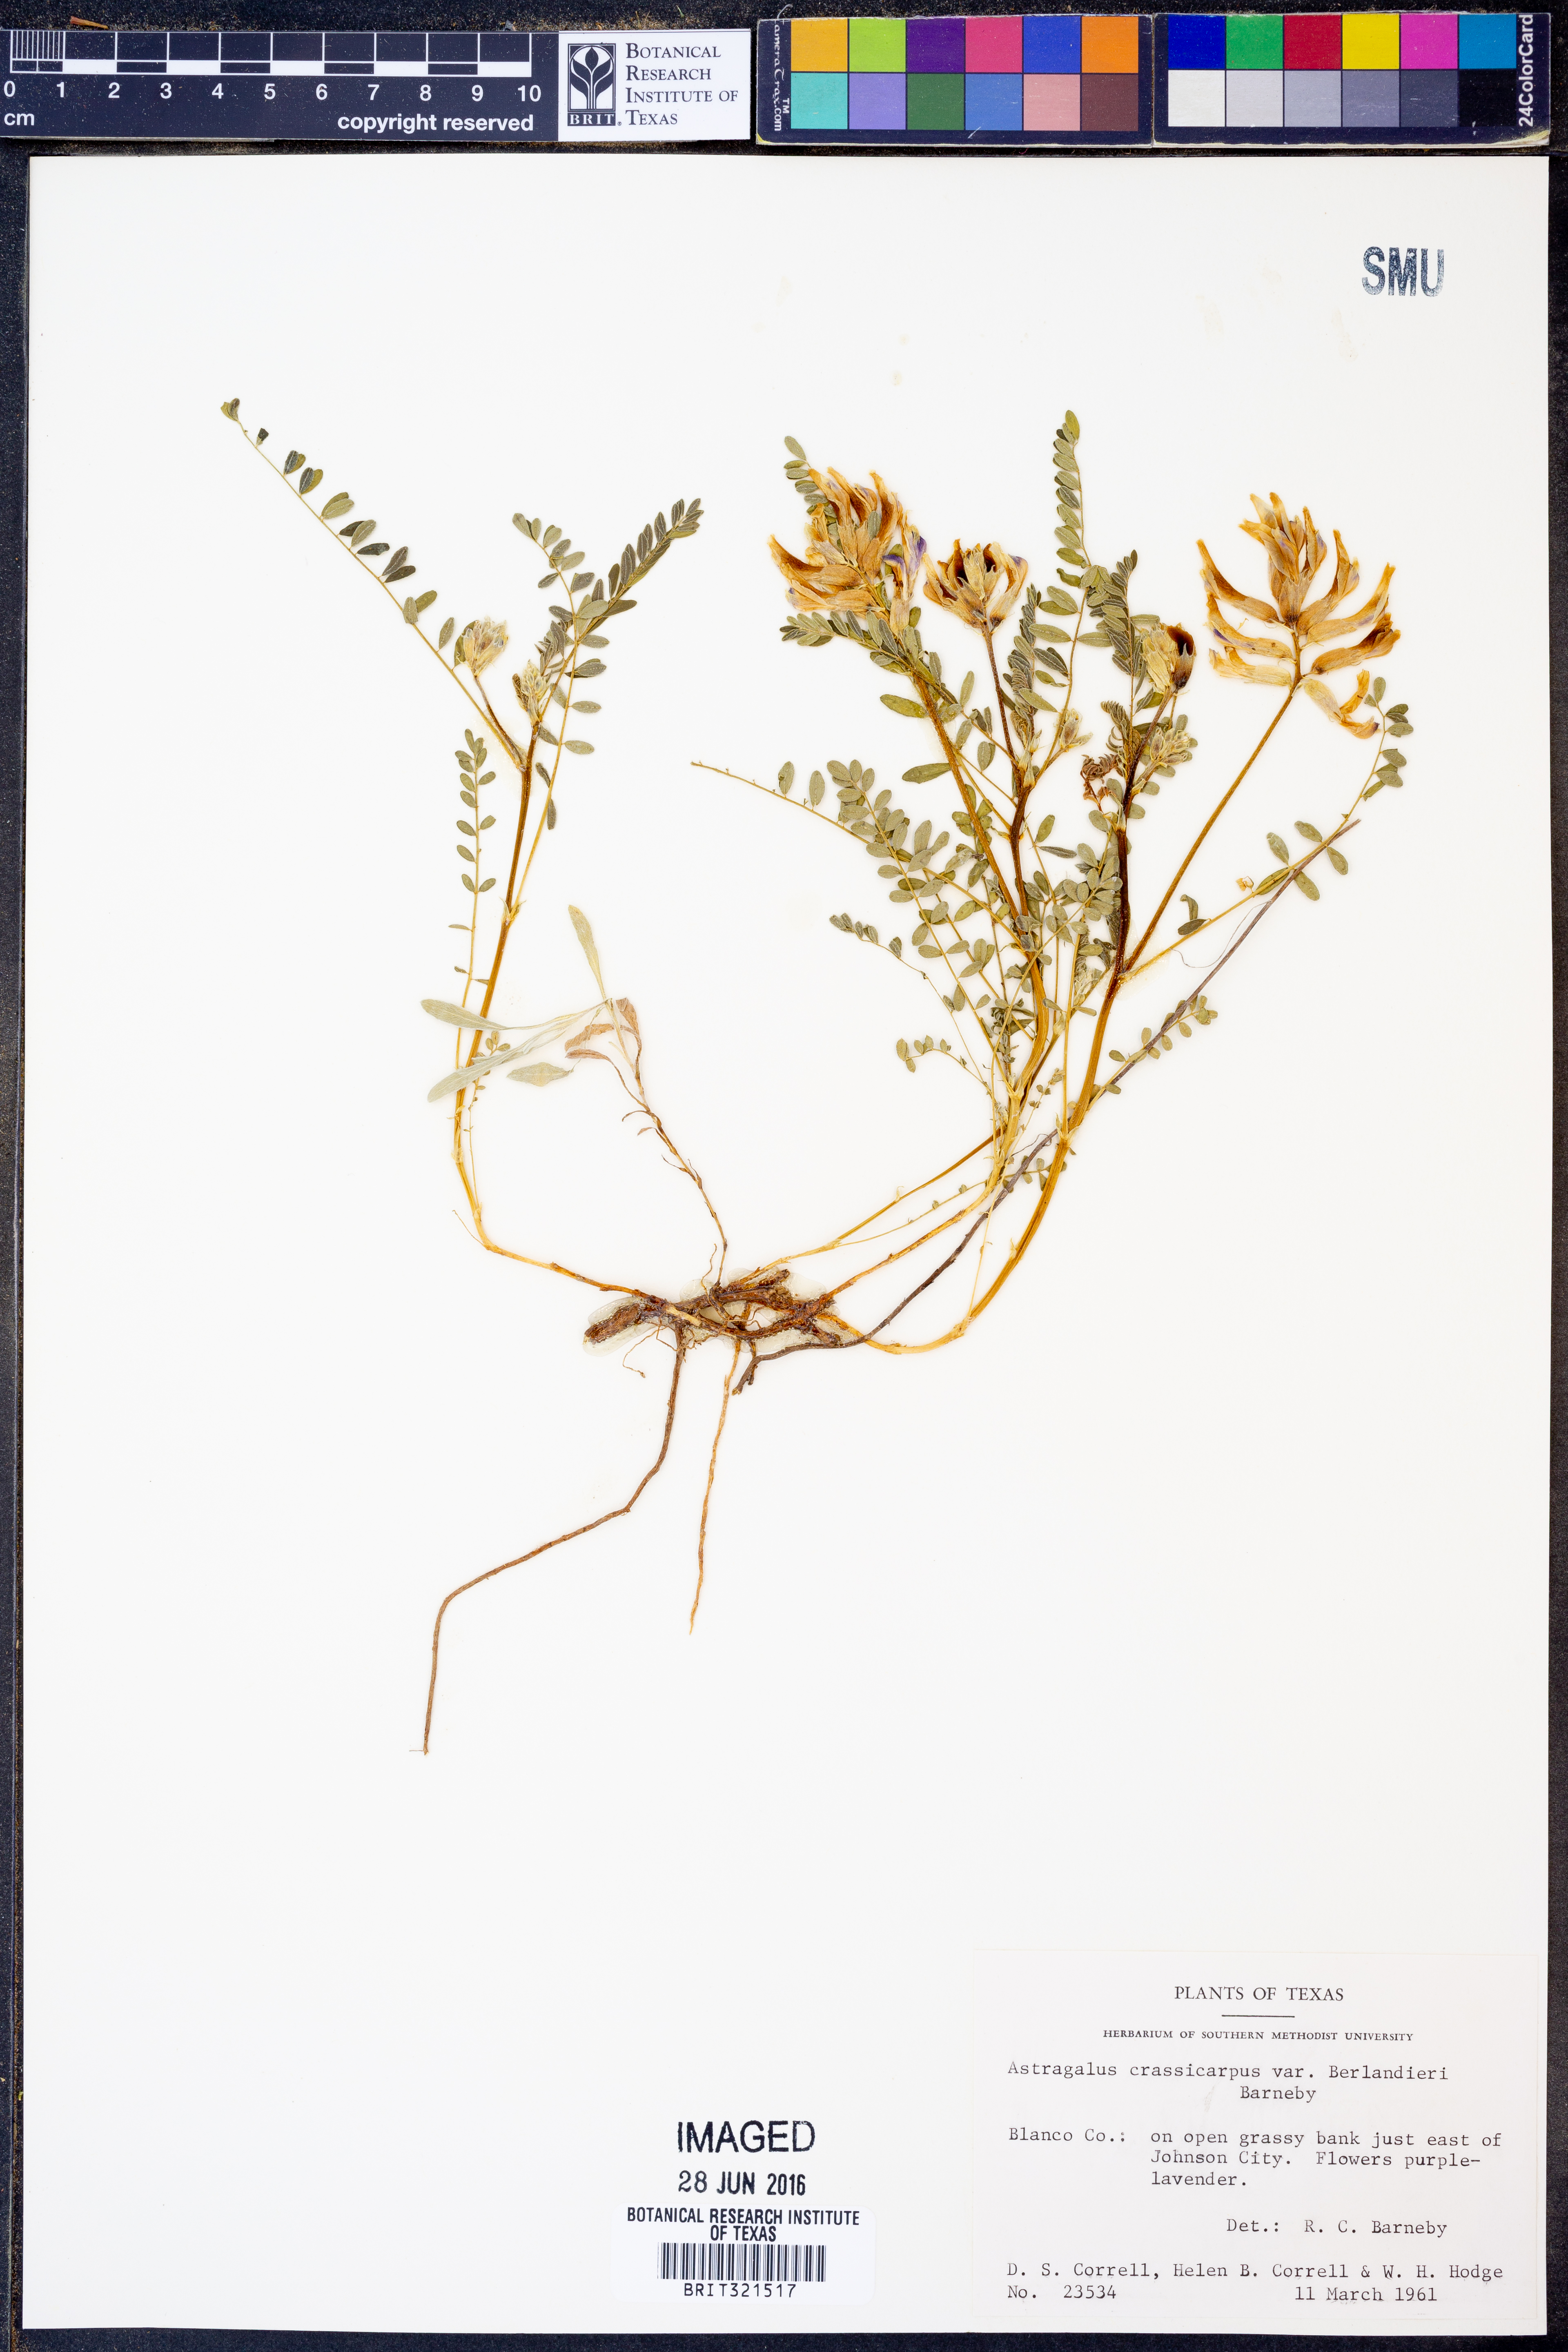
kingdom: Plantae
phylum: Tracheophyta
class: Magnoliopsida
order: Fabales
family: Fabaceae
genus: Astragalus
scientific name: Astragalus crassicarpus
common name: Ground-plum milk-vetch
